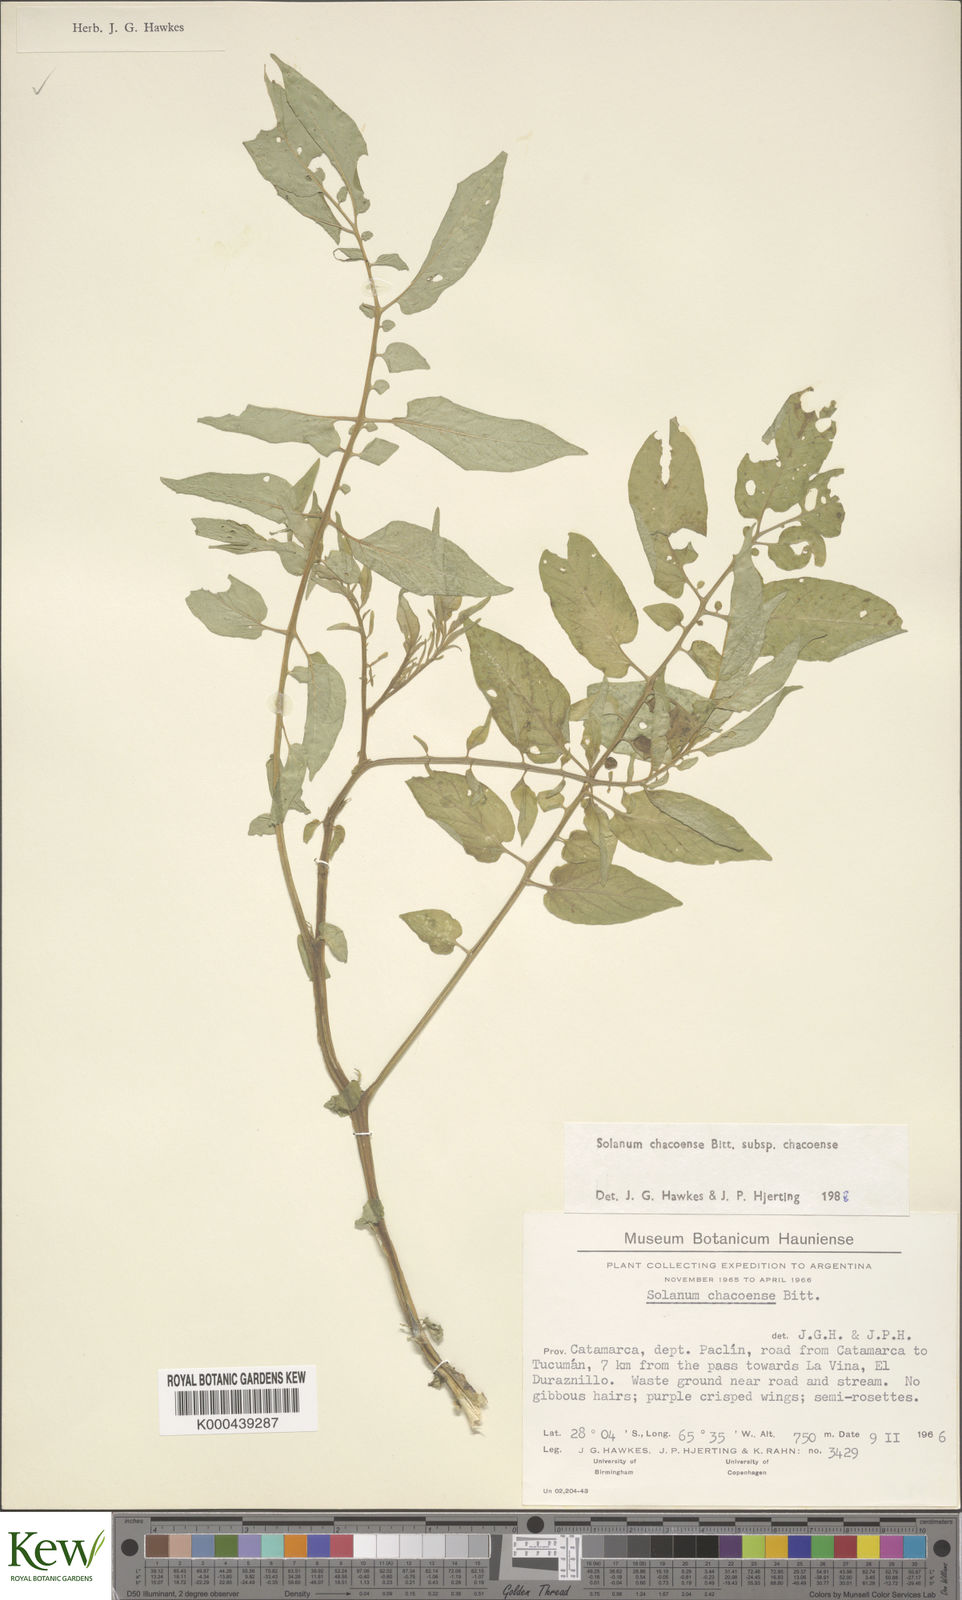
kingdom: Plantae
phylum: Tracheophyta
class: Magnoliopsida
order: Solanales
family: Solanaceae
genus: Solanum
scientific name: Solanum chacoense
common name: Chaco potato
